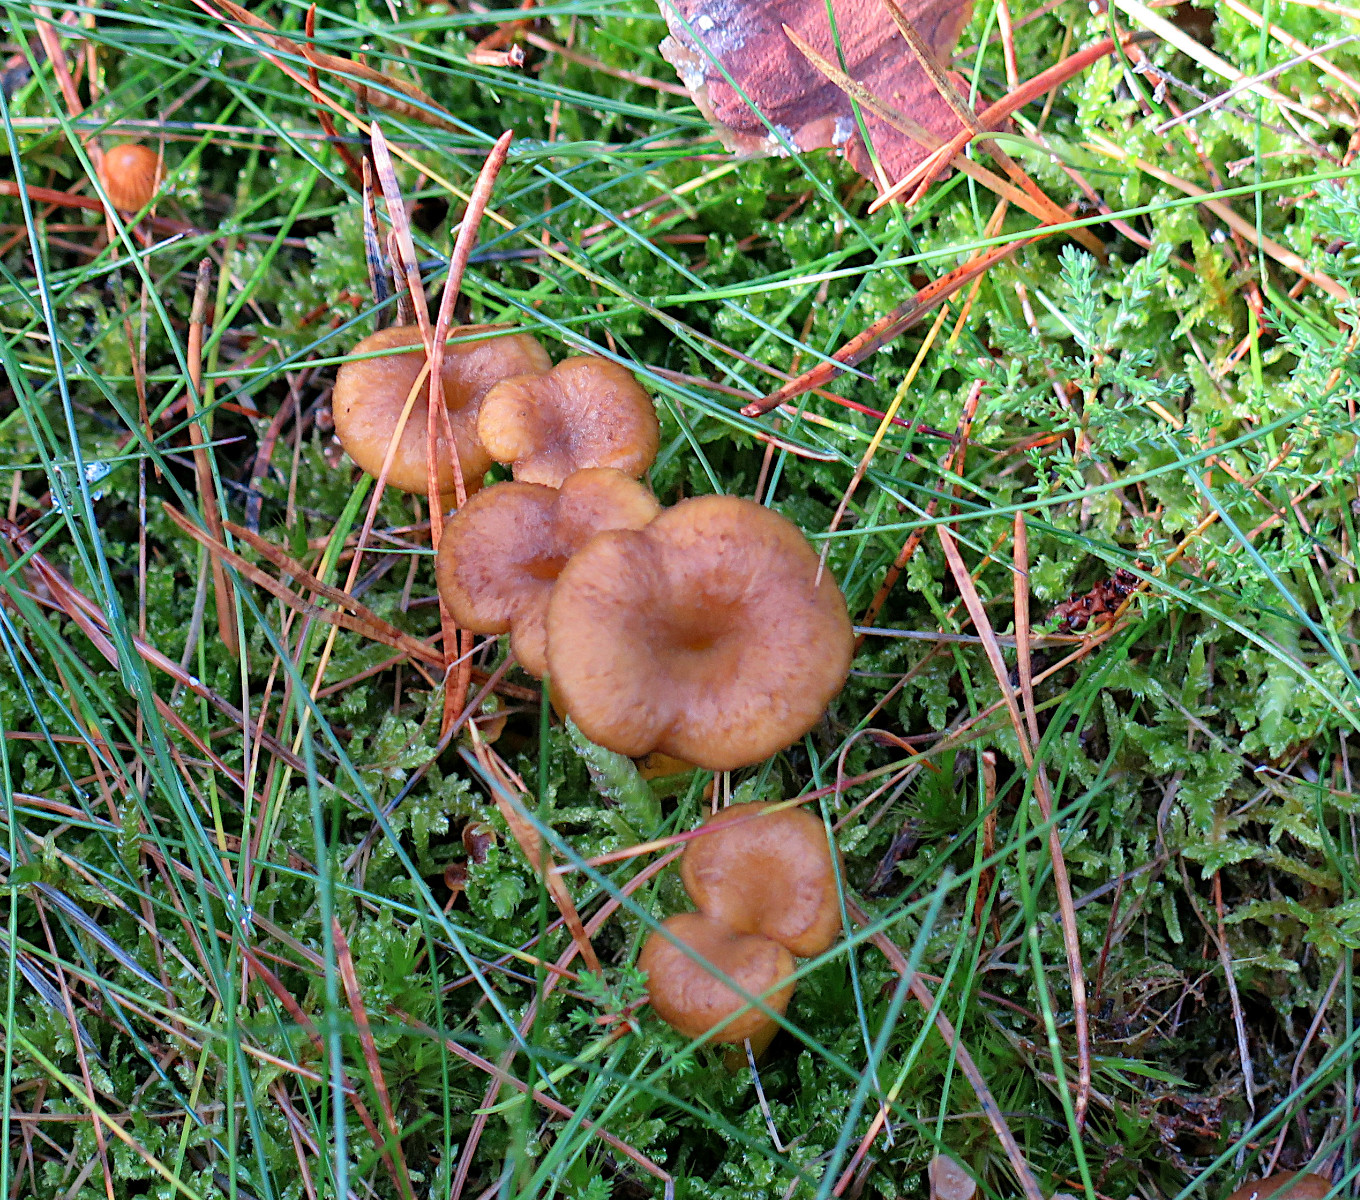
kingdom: Fungi
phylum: Basidiomycota
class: Agaricomycetes
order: Cantharellales
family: Hydnaceae
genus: Craterellus
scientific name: Craterellus tubaeformis
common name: tragt-kantarel
